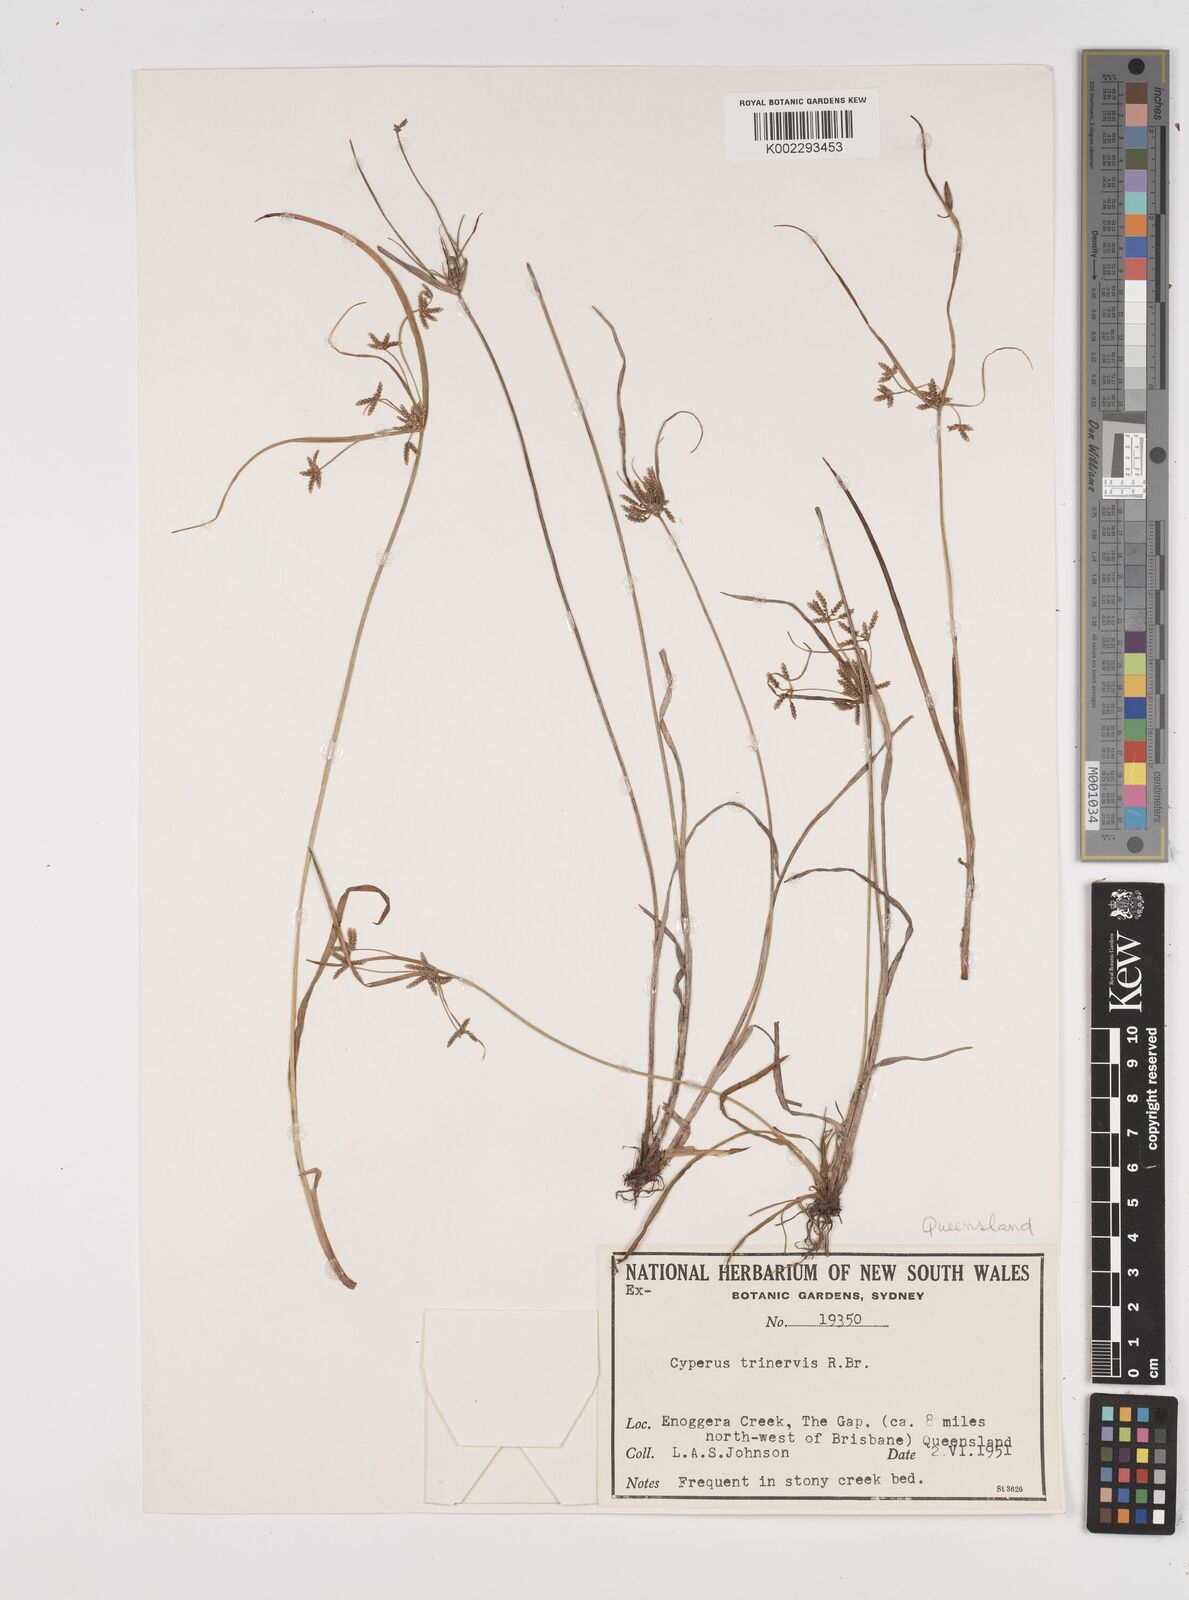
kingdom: Plantae
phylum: Tracheophyta
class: Liliopsida
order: Poales
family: Cyperaceae
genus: Cyperus
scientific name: Cyperus trinervis
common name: Australian flatsedge
